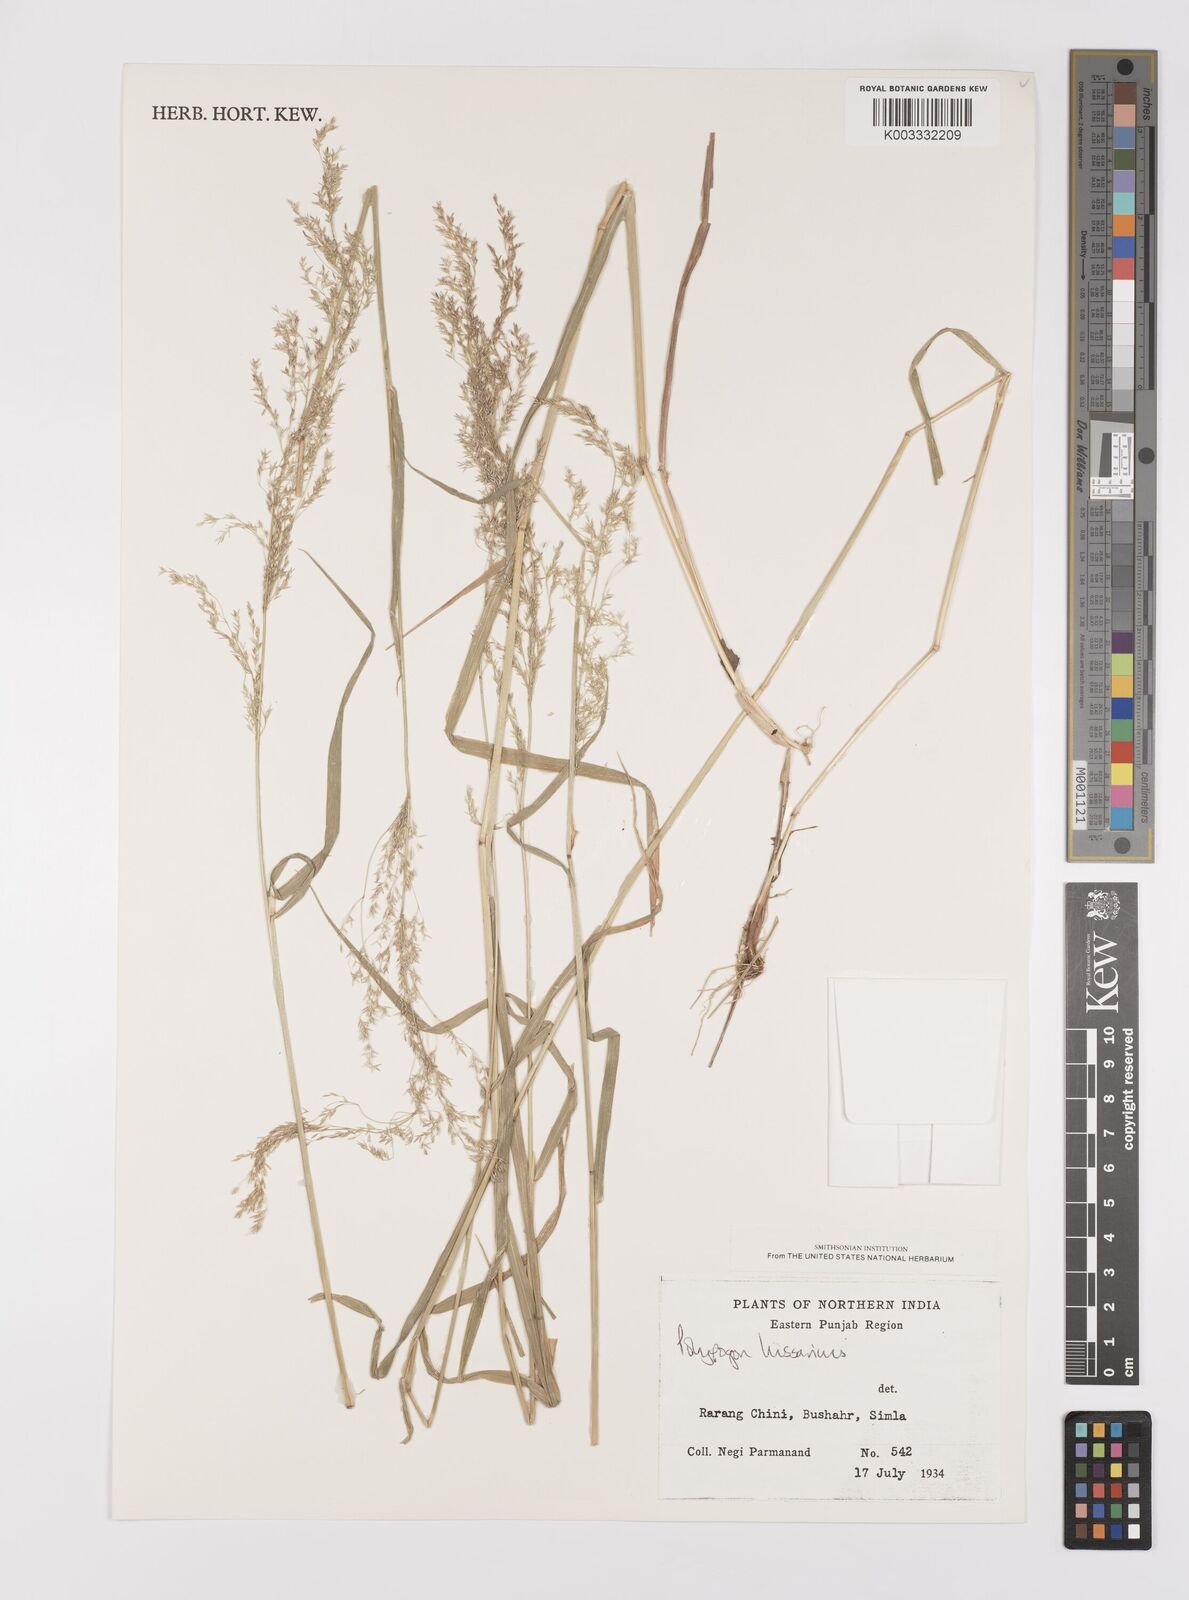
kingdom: Plantae
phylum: Tracheophyta
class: Liliopsida
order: Poales
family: Poaceae
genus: Polypogon
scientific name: Polypogon hissaricus
